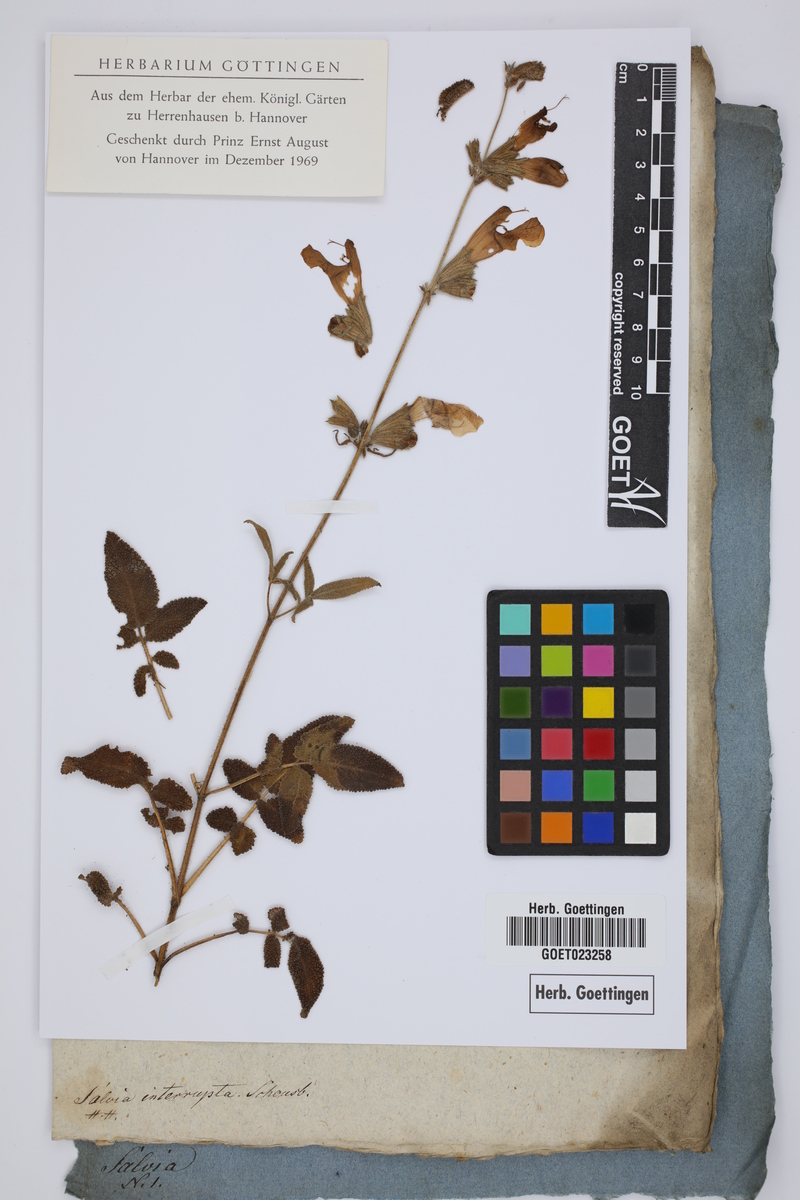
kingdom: Plantae
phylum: Tracheophyta
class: Magnoliopsida
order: Lamiales
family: Lamiaceae
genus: Salvia
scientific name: Salvia interrupta
